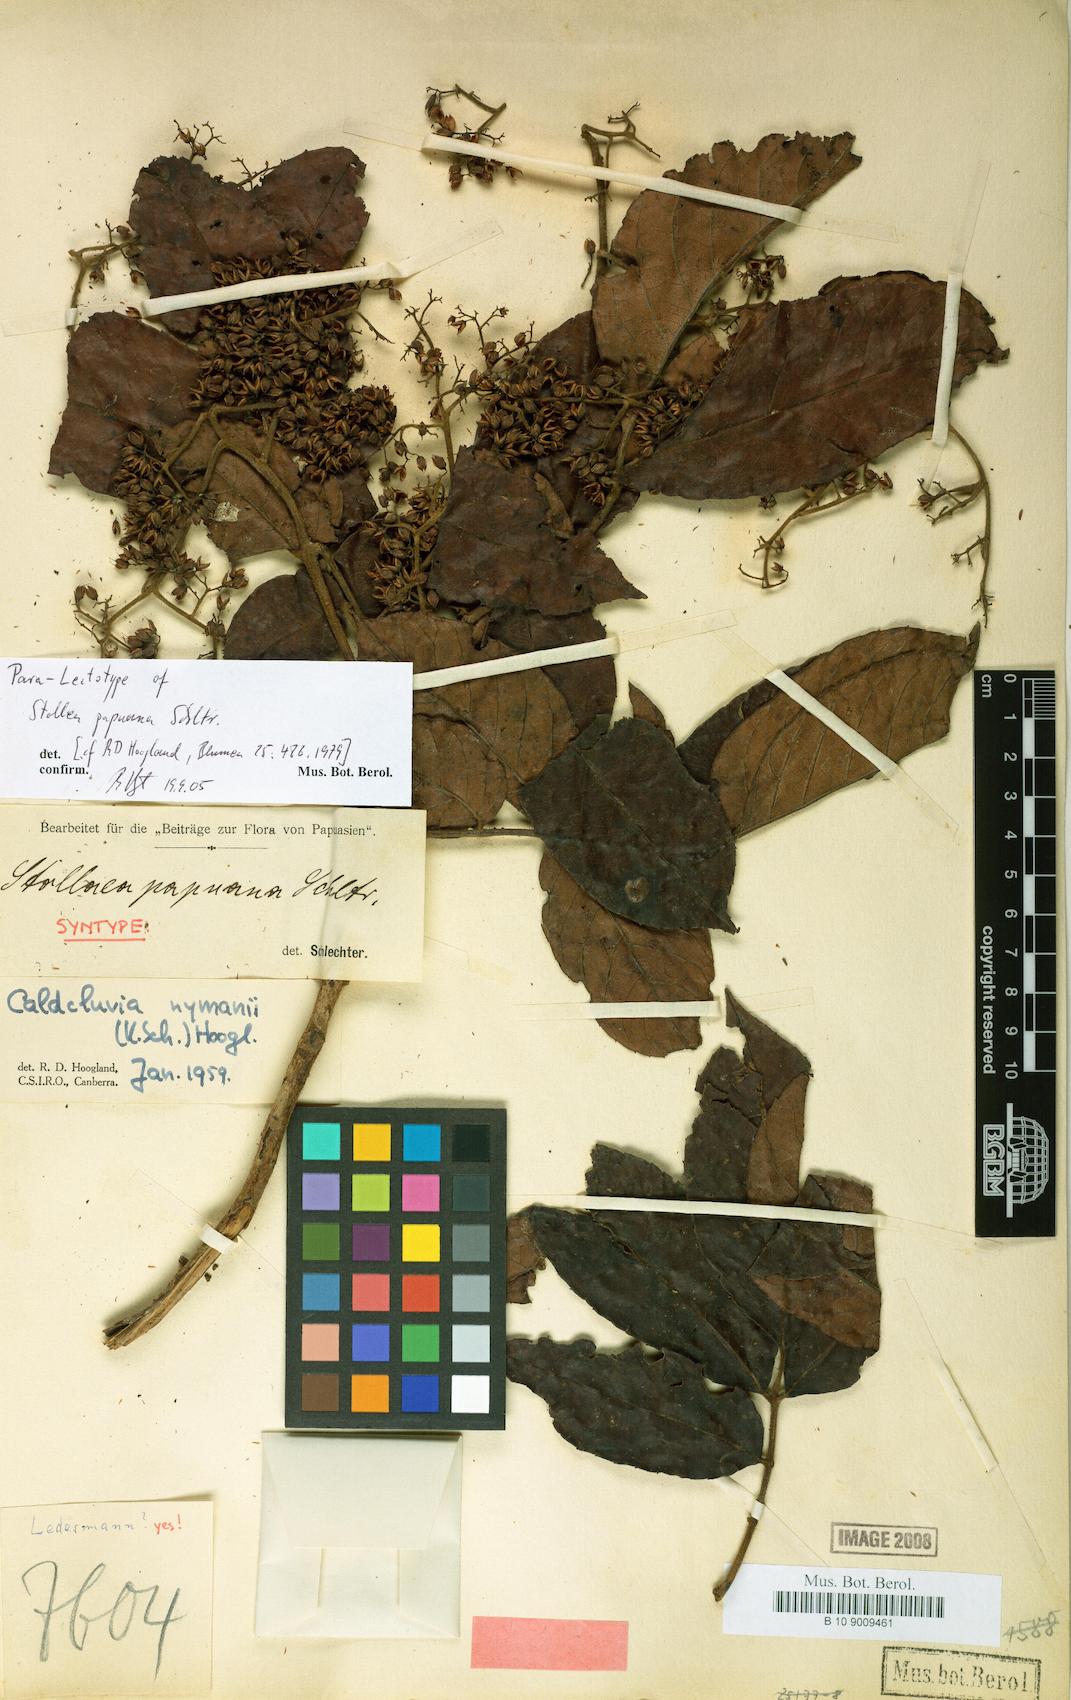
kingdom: Plantae
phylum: Tracheophyta
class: Magnoliopsida
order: Oxalidales
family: Cunoniaceae
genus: Opocunonia
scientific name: Opocunonia nymanii
